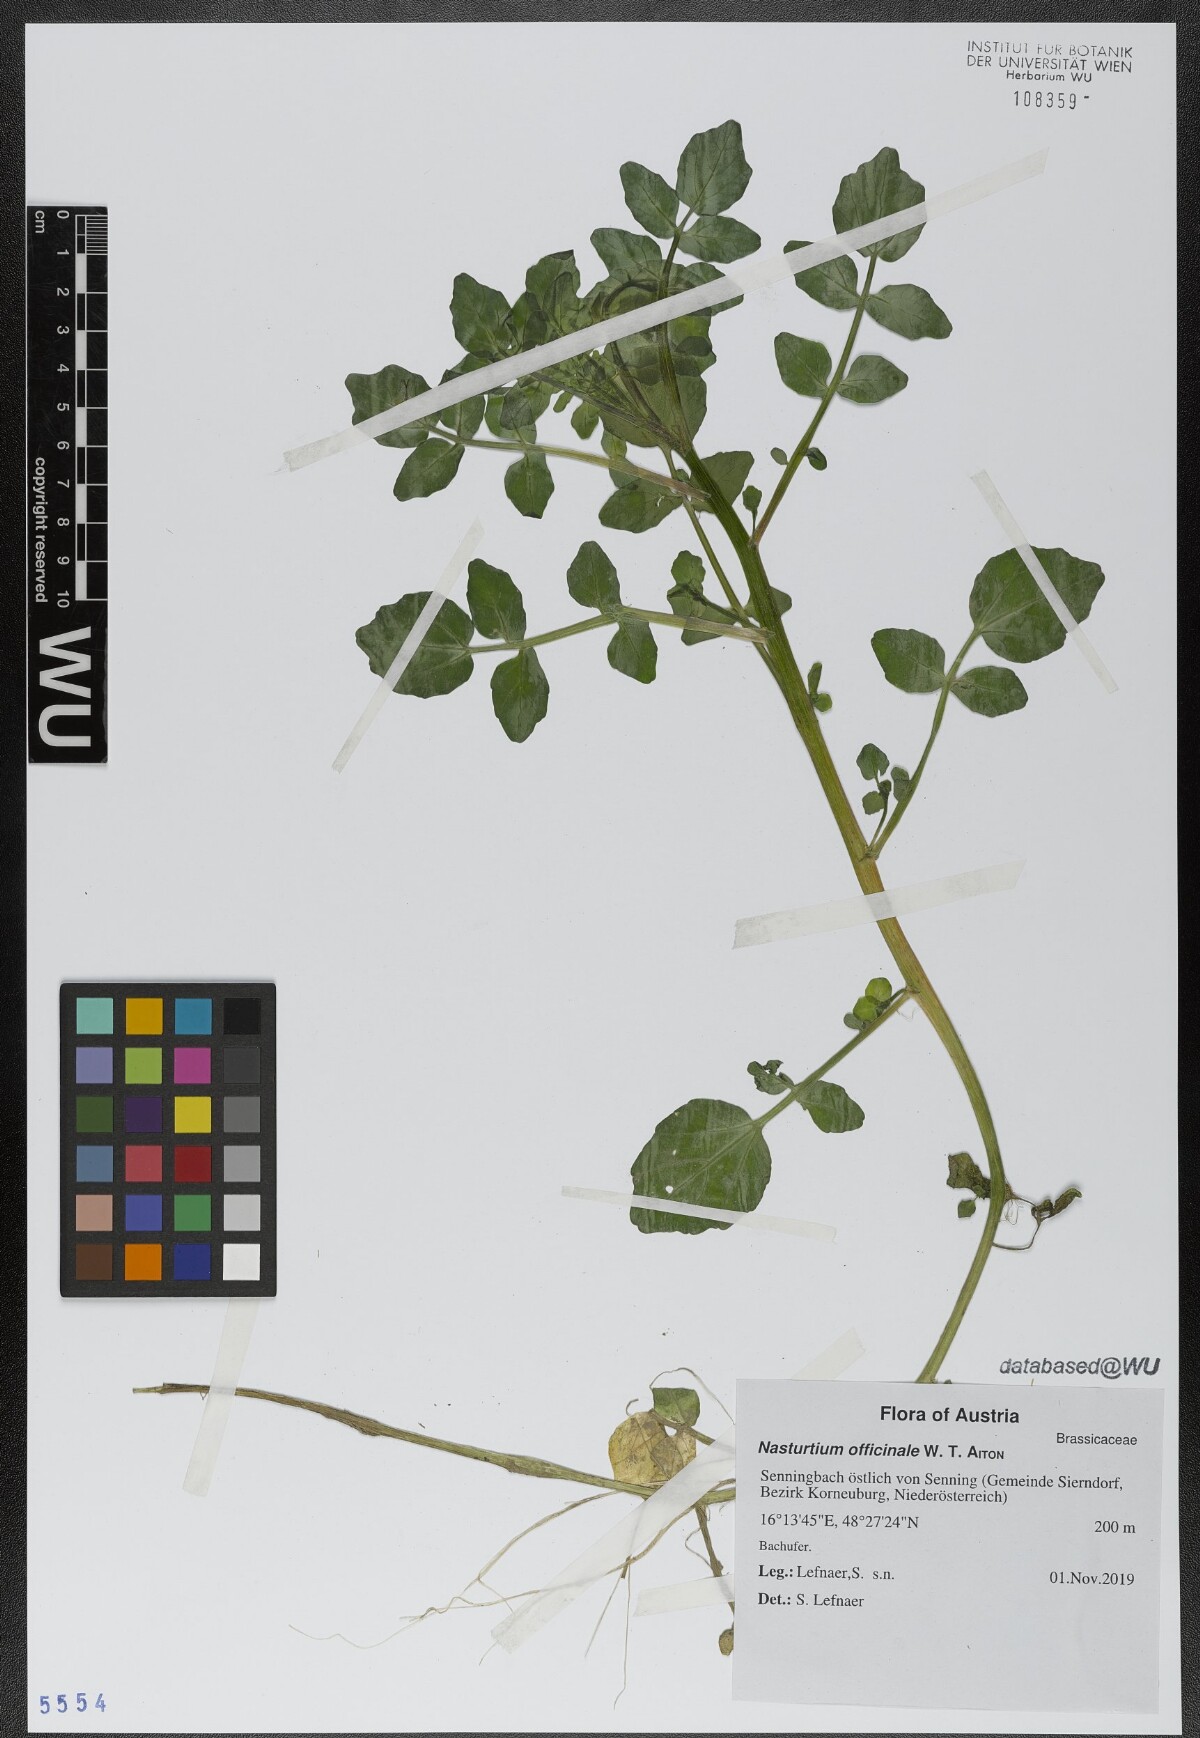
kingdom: Plantae
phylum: Tracheophyta
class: Magnoliopsida
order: Brassicales
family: Brassicaceae
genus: Nasturtium
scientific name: Nasturtium officinale
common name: Watercress
